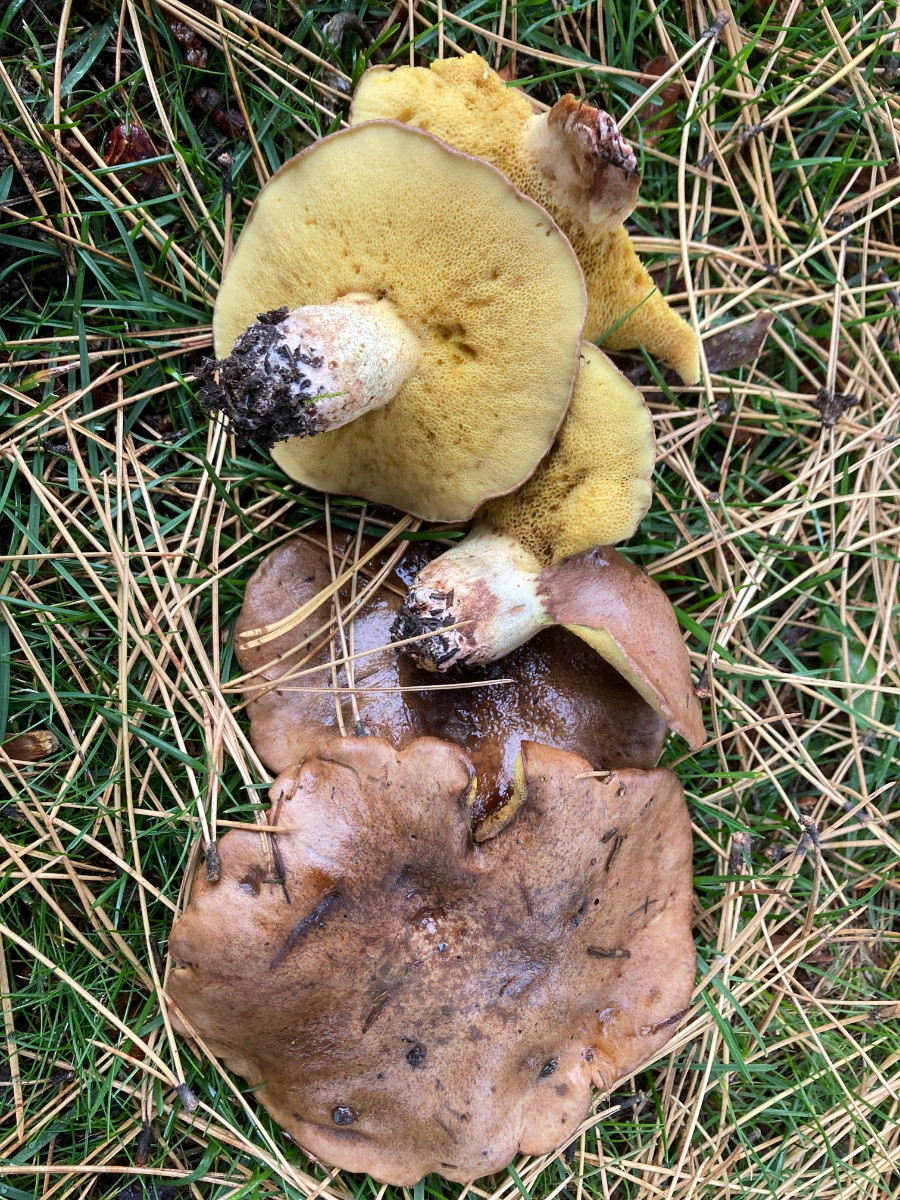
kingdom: Fungi
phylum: Basidiomycota
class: Agaricomycetes
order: Boletales
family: Suillaceae
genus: Suillus
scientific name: Suillus collinitus
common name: rosafodet slimrørhat
